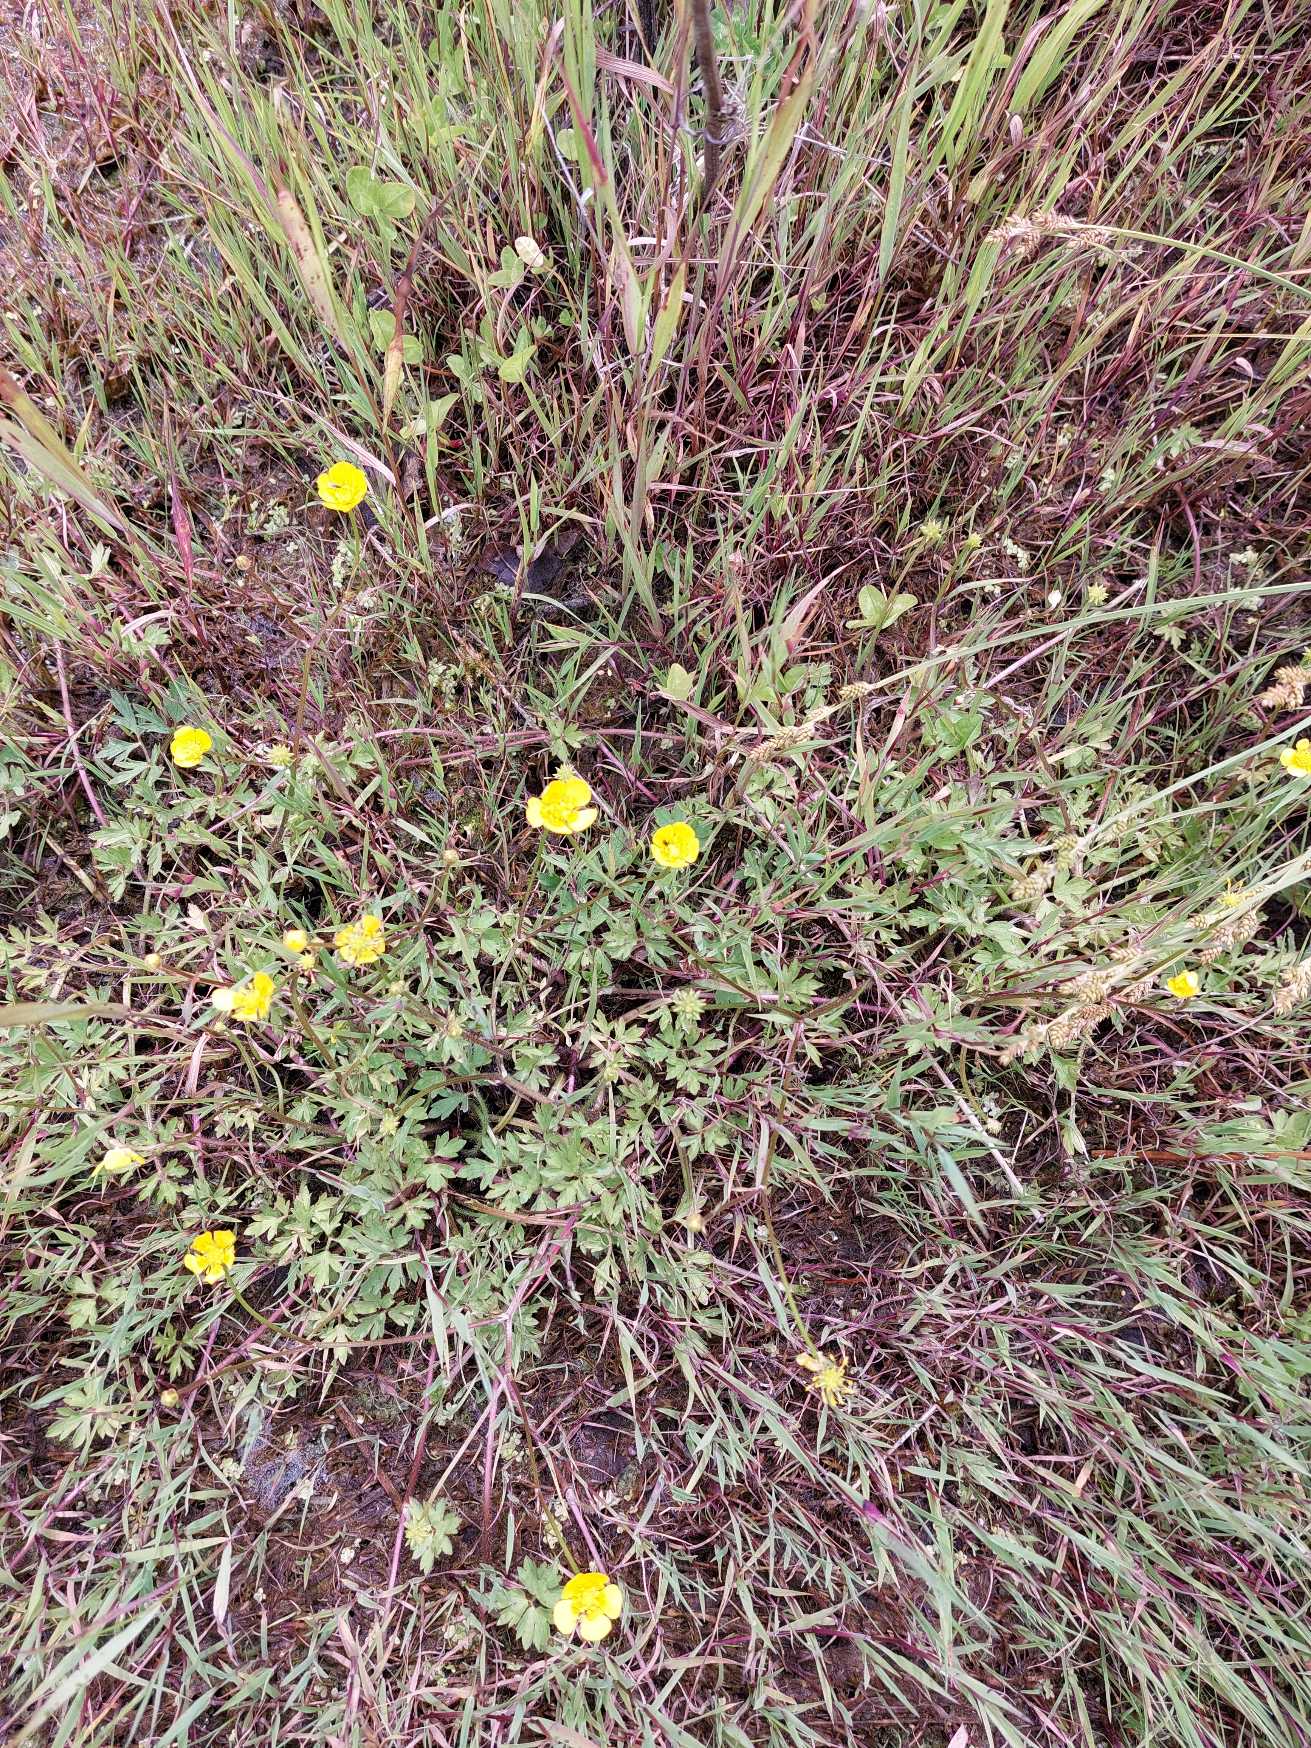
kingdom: Plantae
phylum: Tracheophyta
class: Magnoliopsida
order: Ranunculales
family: Ranunculaceae
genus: Ranunculus
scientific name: Ranunculus repens
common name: Lav ranunkel
